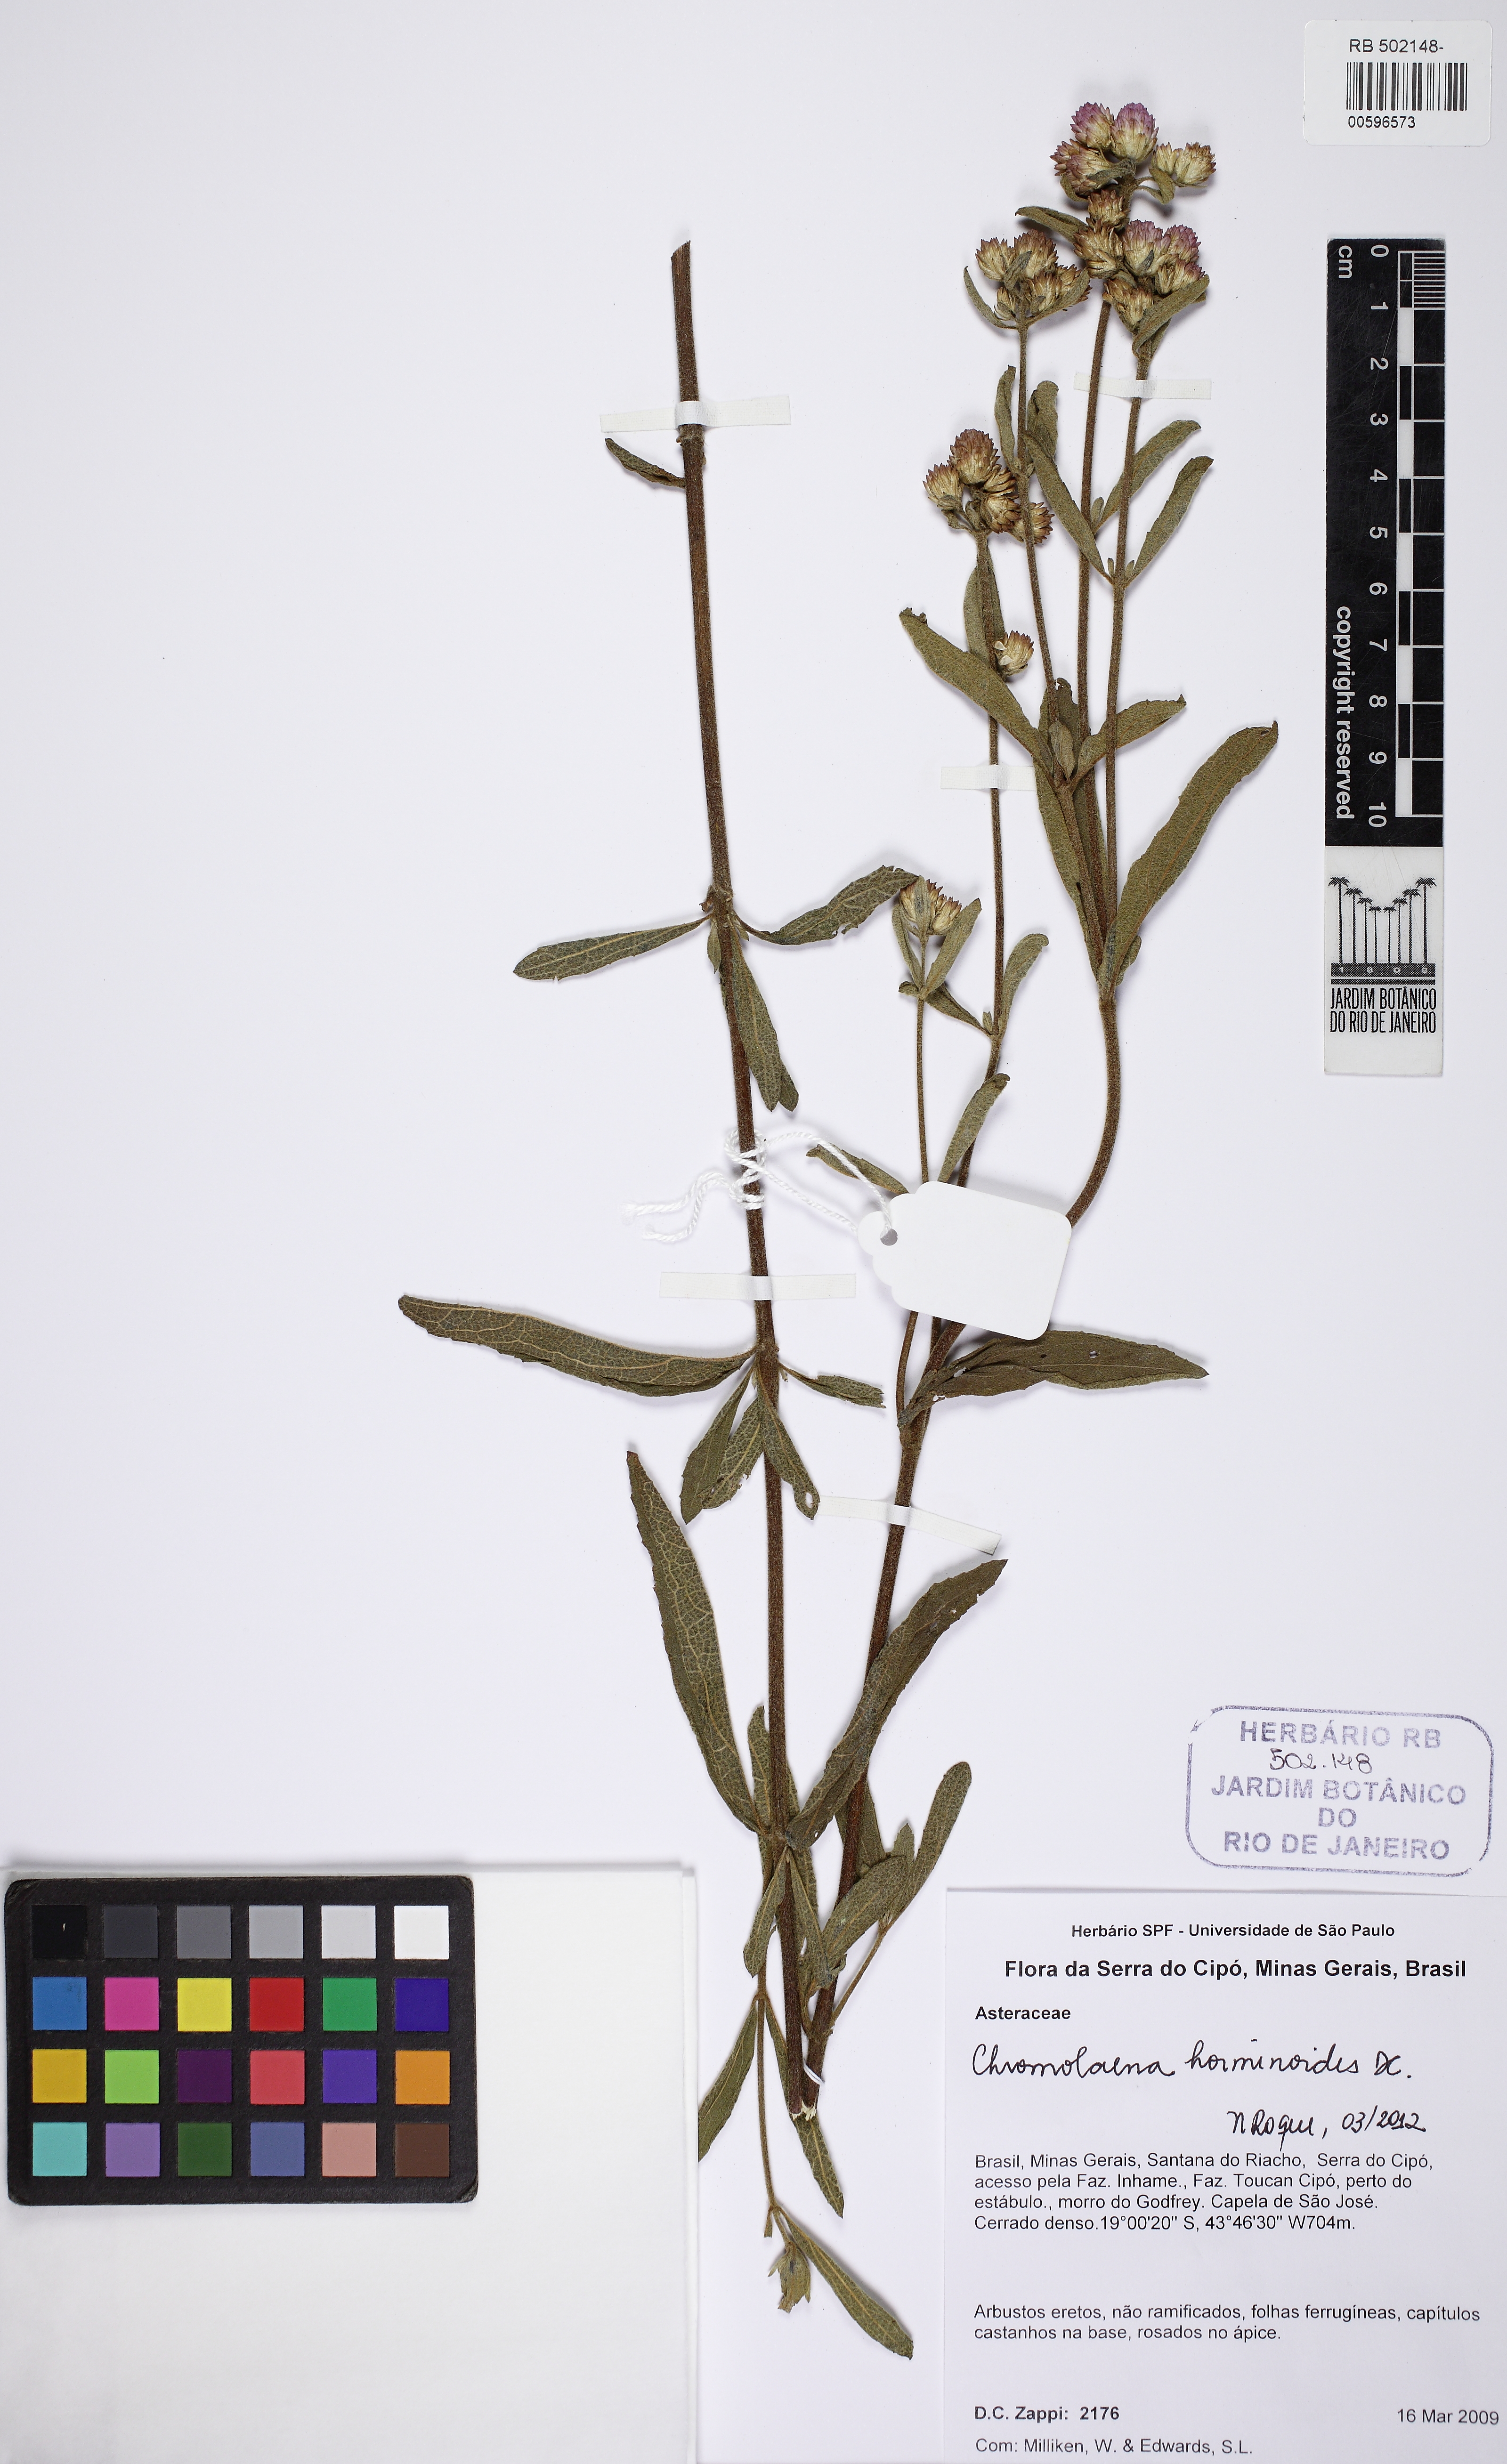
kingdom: Plantae
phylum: Tracheophyta
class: Magnoliopsida
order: Asterales
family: Asteraceae
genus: Chromolaena
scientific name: Chromolaena horminoides
